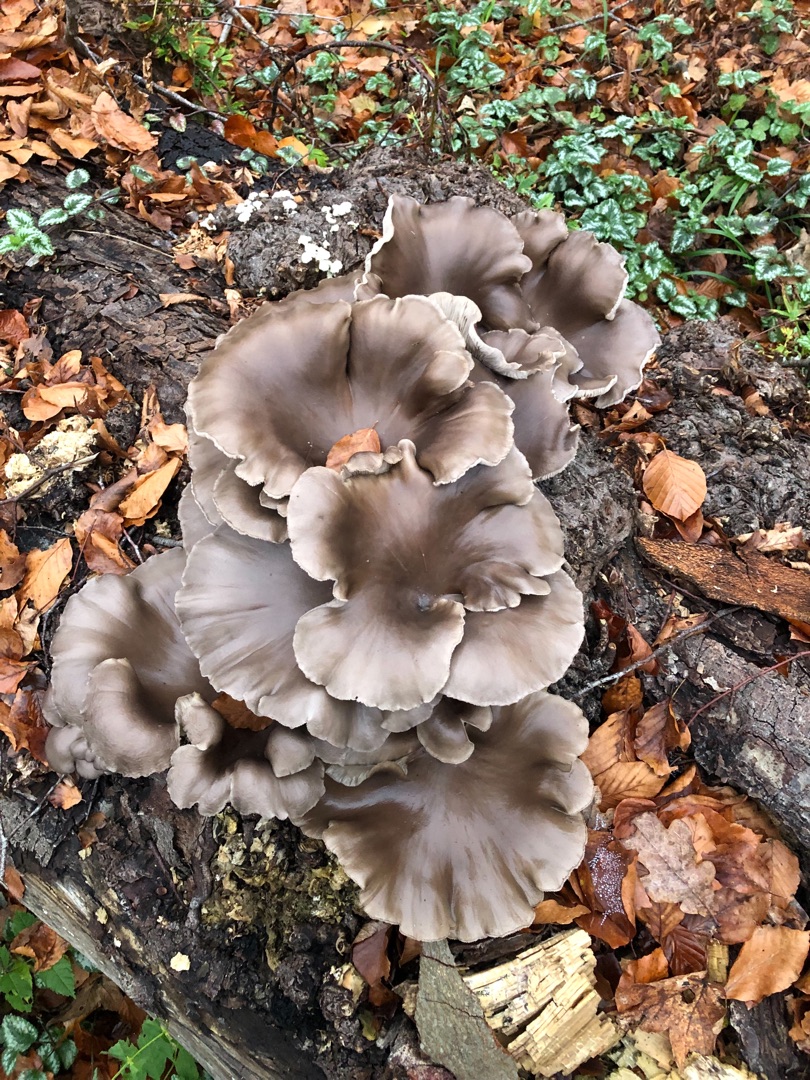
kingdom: Fungi
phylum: Basidiomycota
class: Agaricomycetes
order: Agaricales
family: Pleurotaceae
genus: Pleurotus
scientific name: Pleurotus ostreatus
